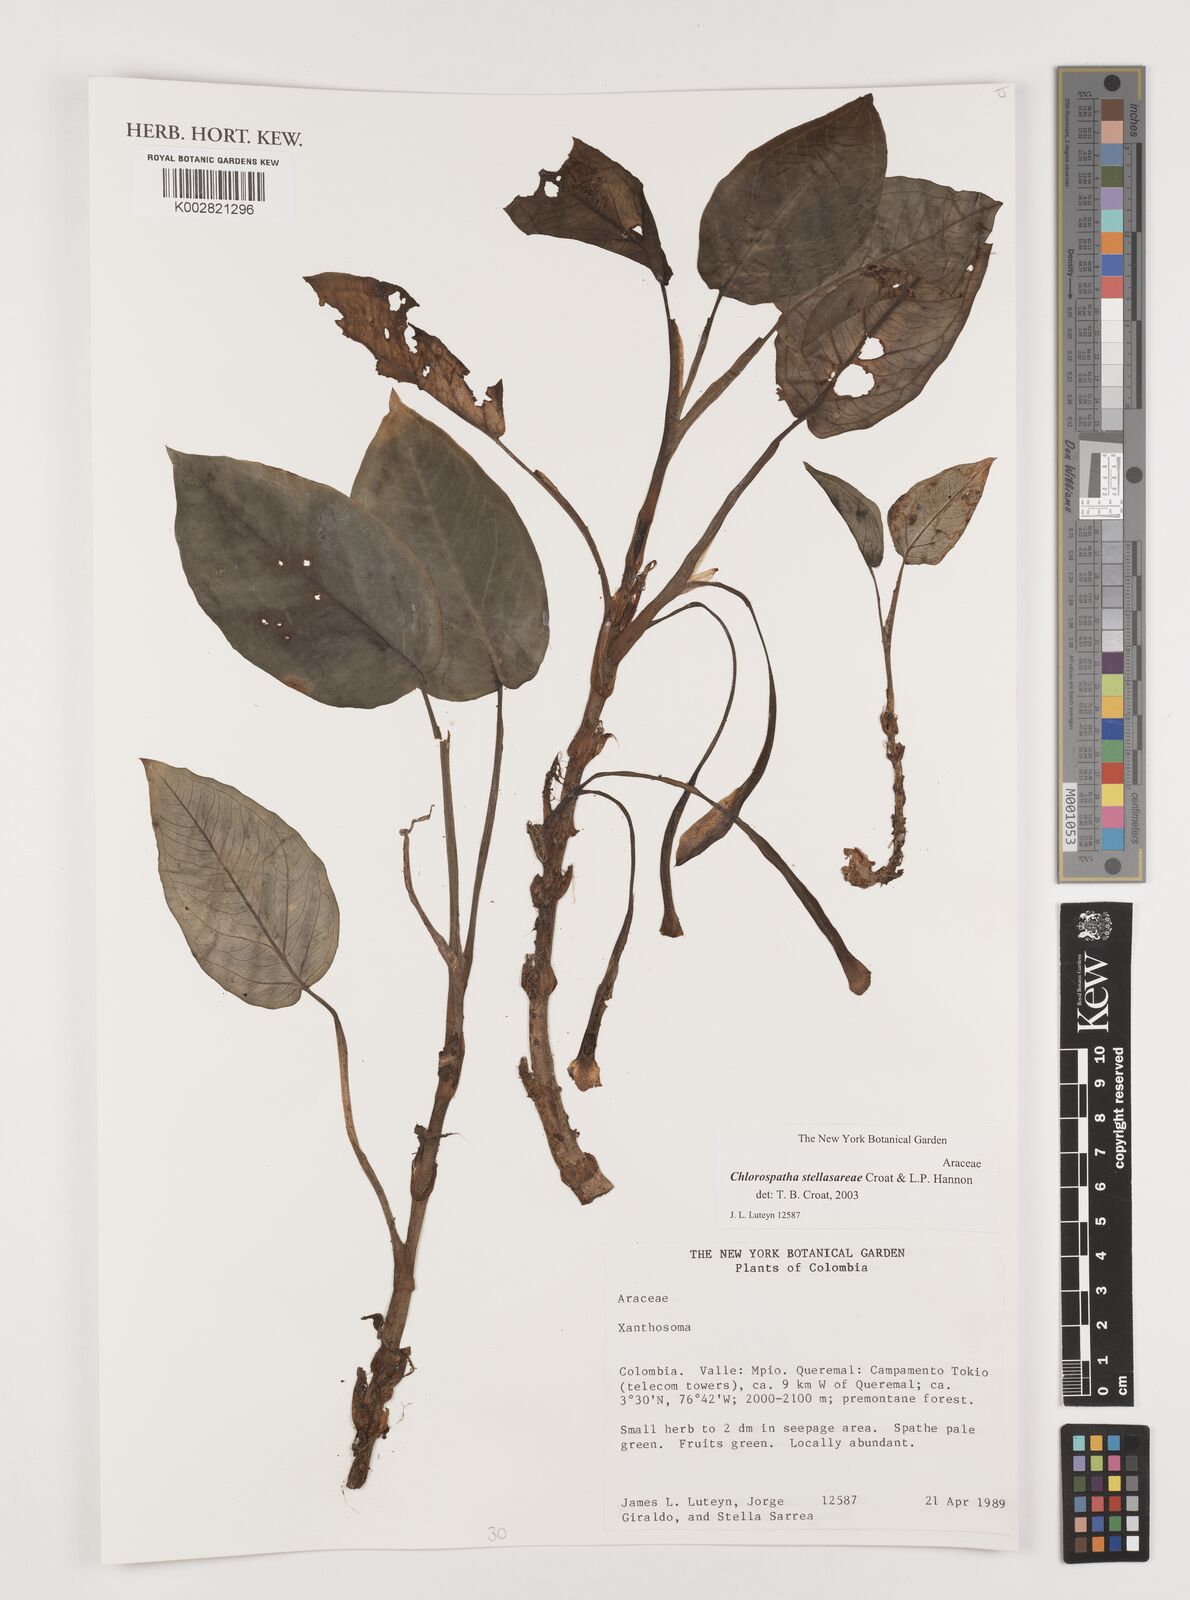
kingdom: Plantae
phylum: Tracheophyta
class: Liliopsida
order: Alismatales
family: Araceae
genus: Chlorospatha
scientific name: Chlorospatha stellasarreae
